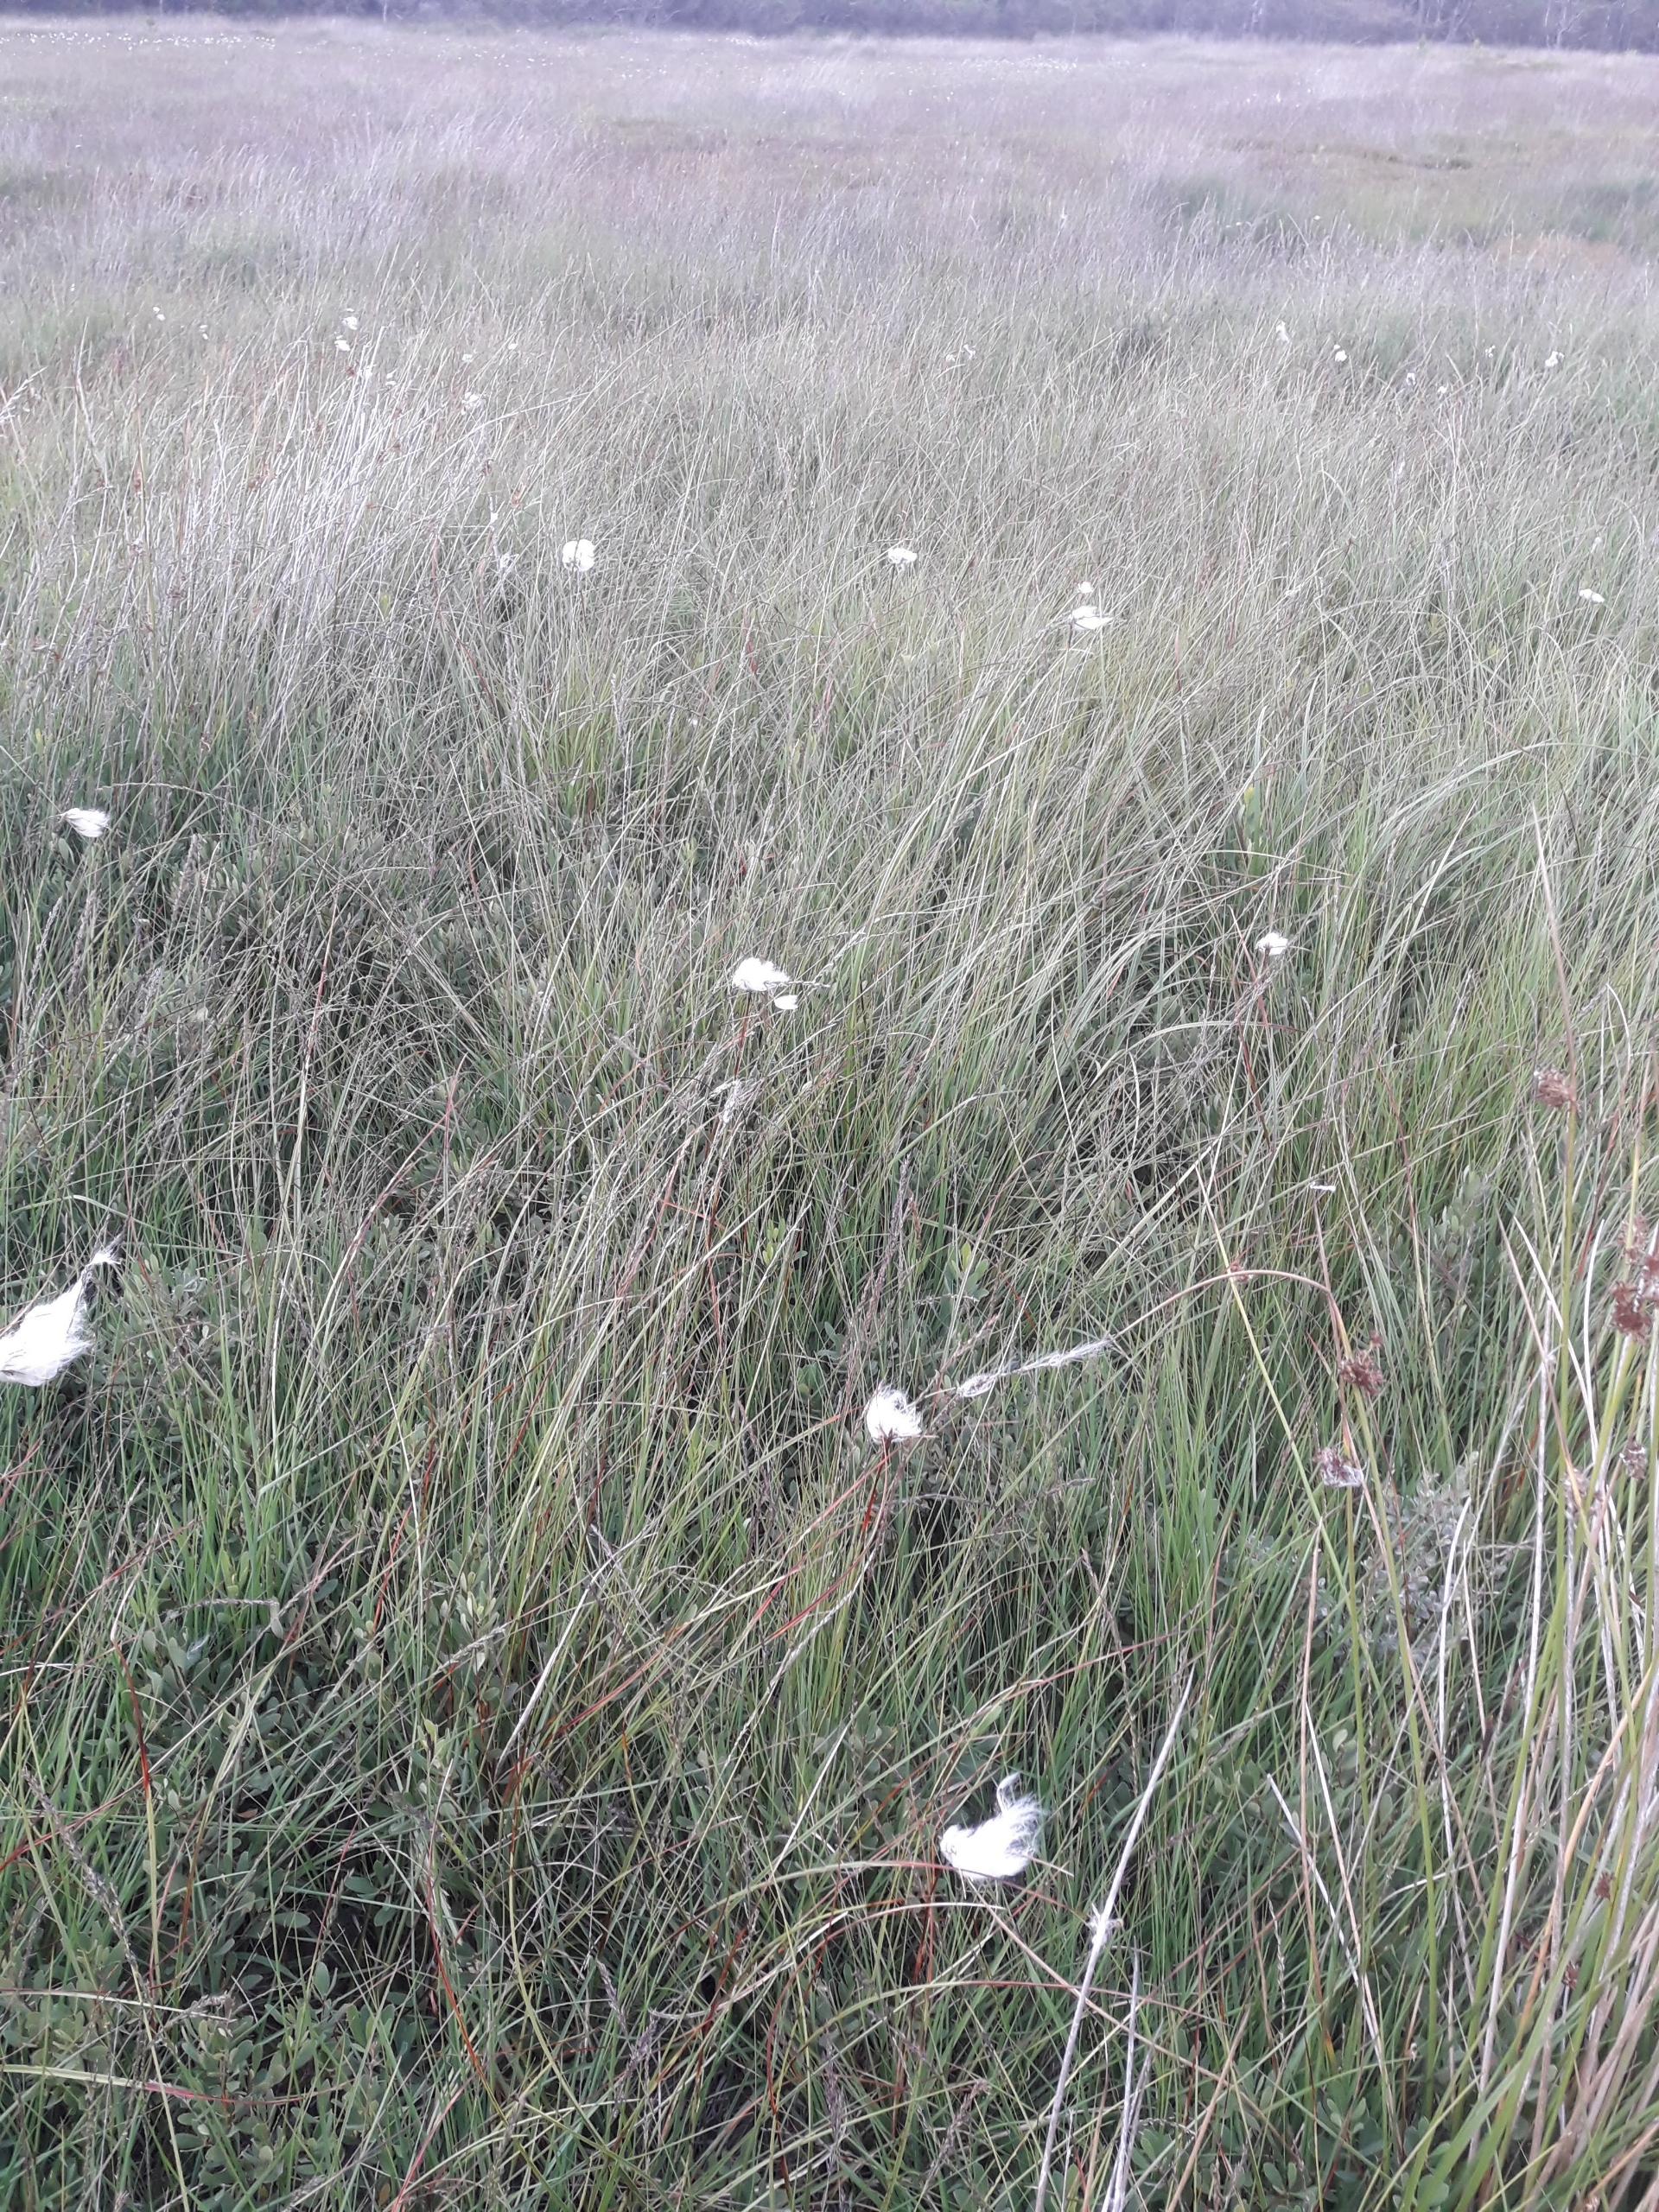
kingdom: Plantae
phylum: Tracheophyta
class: Liliopsida
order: Poales
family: Cyperaceae
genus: Eriophorum
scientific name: Eriophorum angustifolium
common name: Smalbladet kæruld
